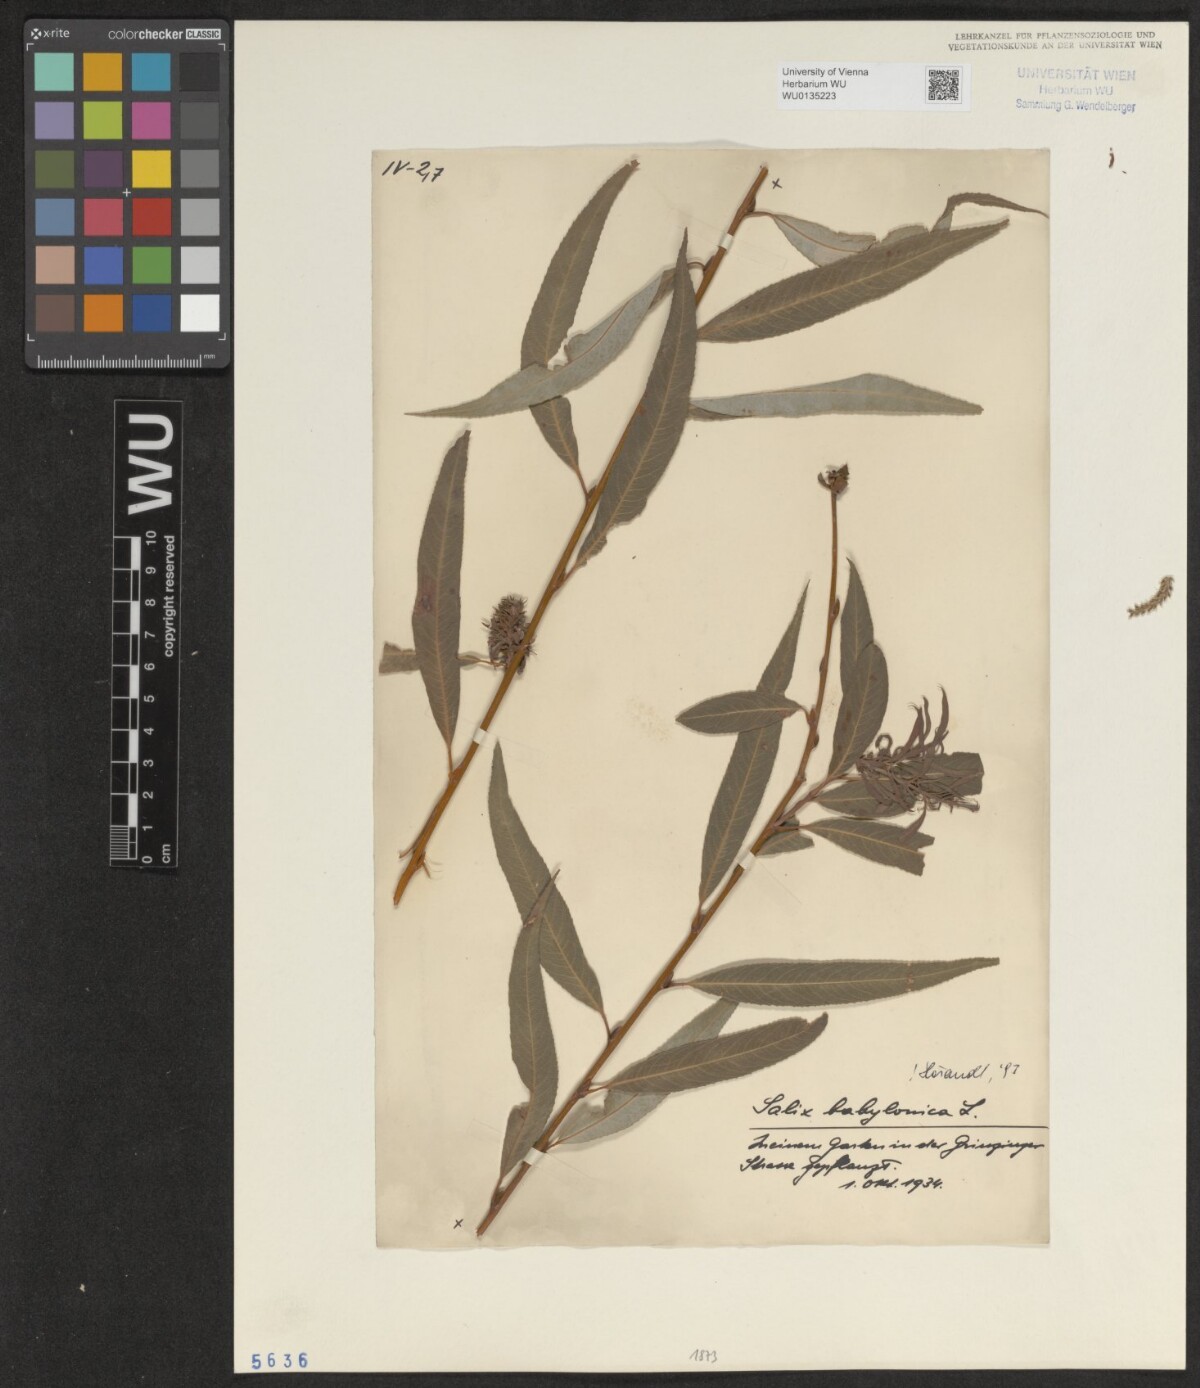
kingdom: Plantae
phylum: Tracheophyta
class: Magnoliopsida
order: Malpighiales
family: Salicaceae
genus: Salix
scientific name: Salix babylonica
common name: Weeping willow
